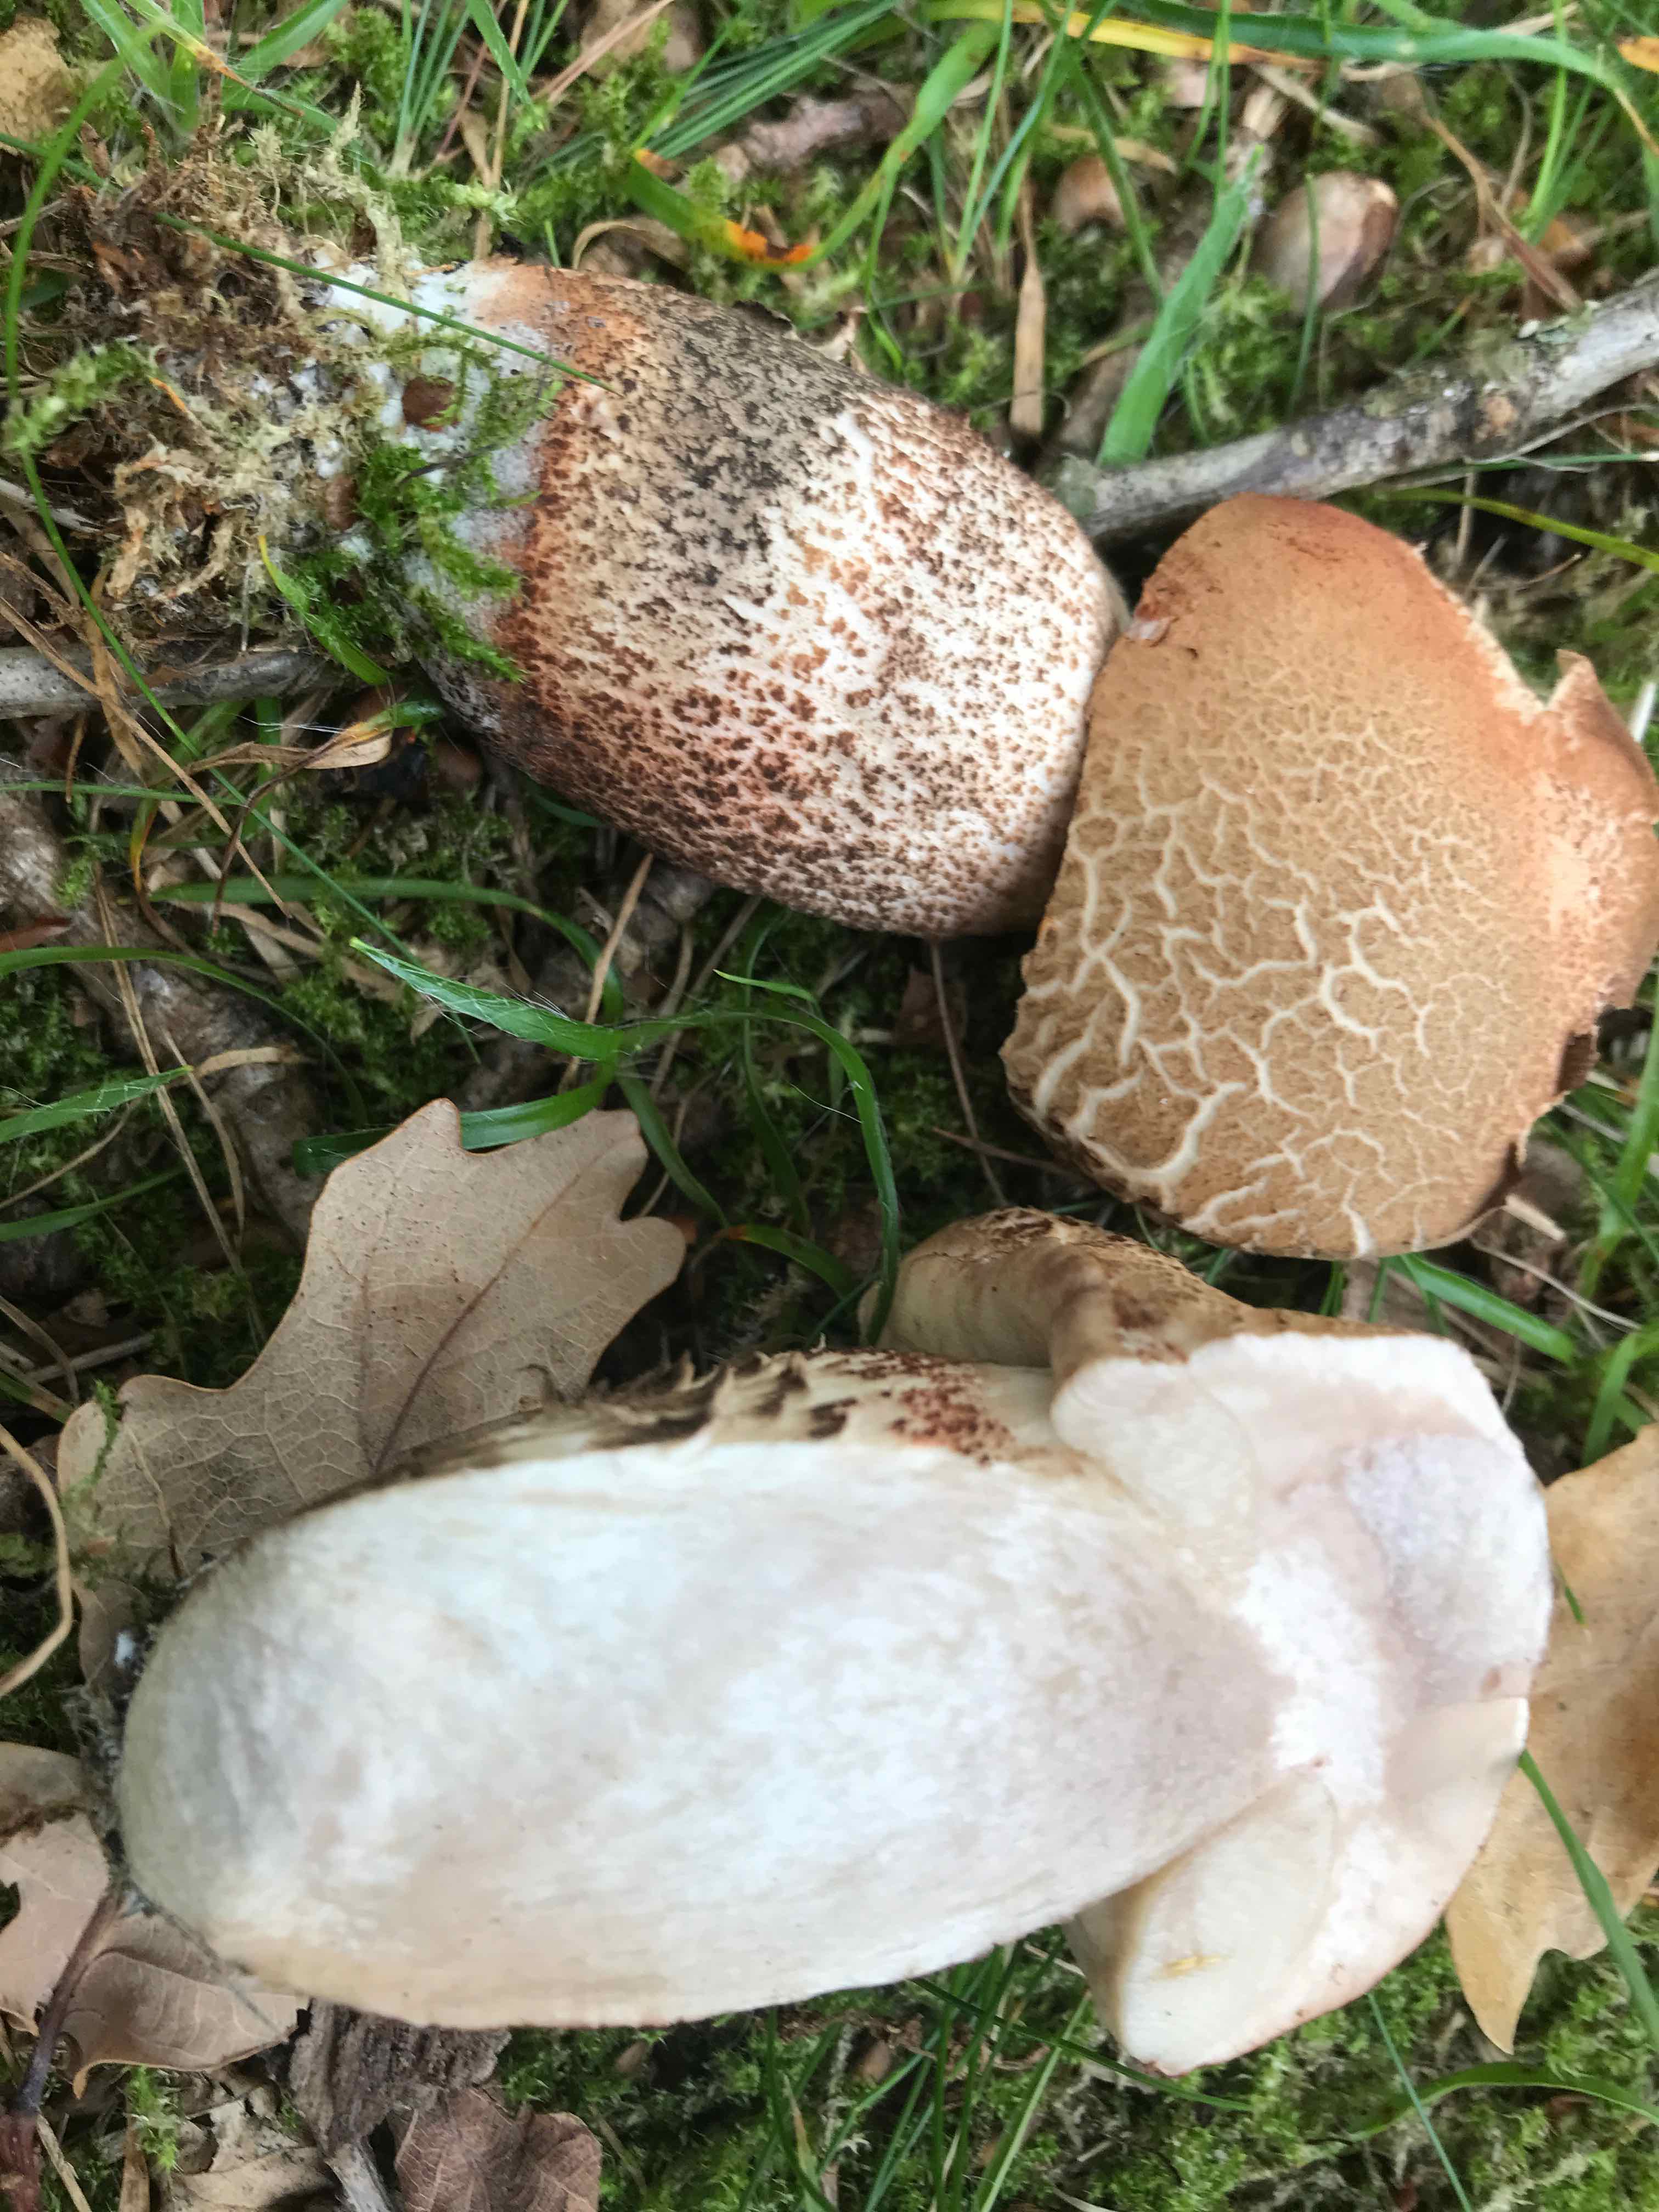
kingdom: Fungi
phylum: Basidiomycota
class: Agaricomycetes
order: Boletales
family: Boletaceae
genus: Leccinum
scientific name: Leccinum aurantiacum
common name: rustrød skælrørhat
